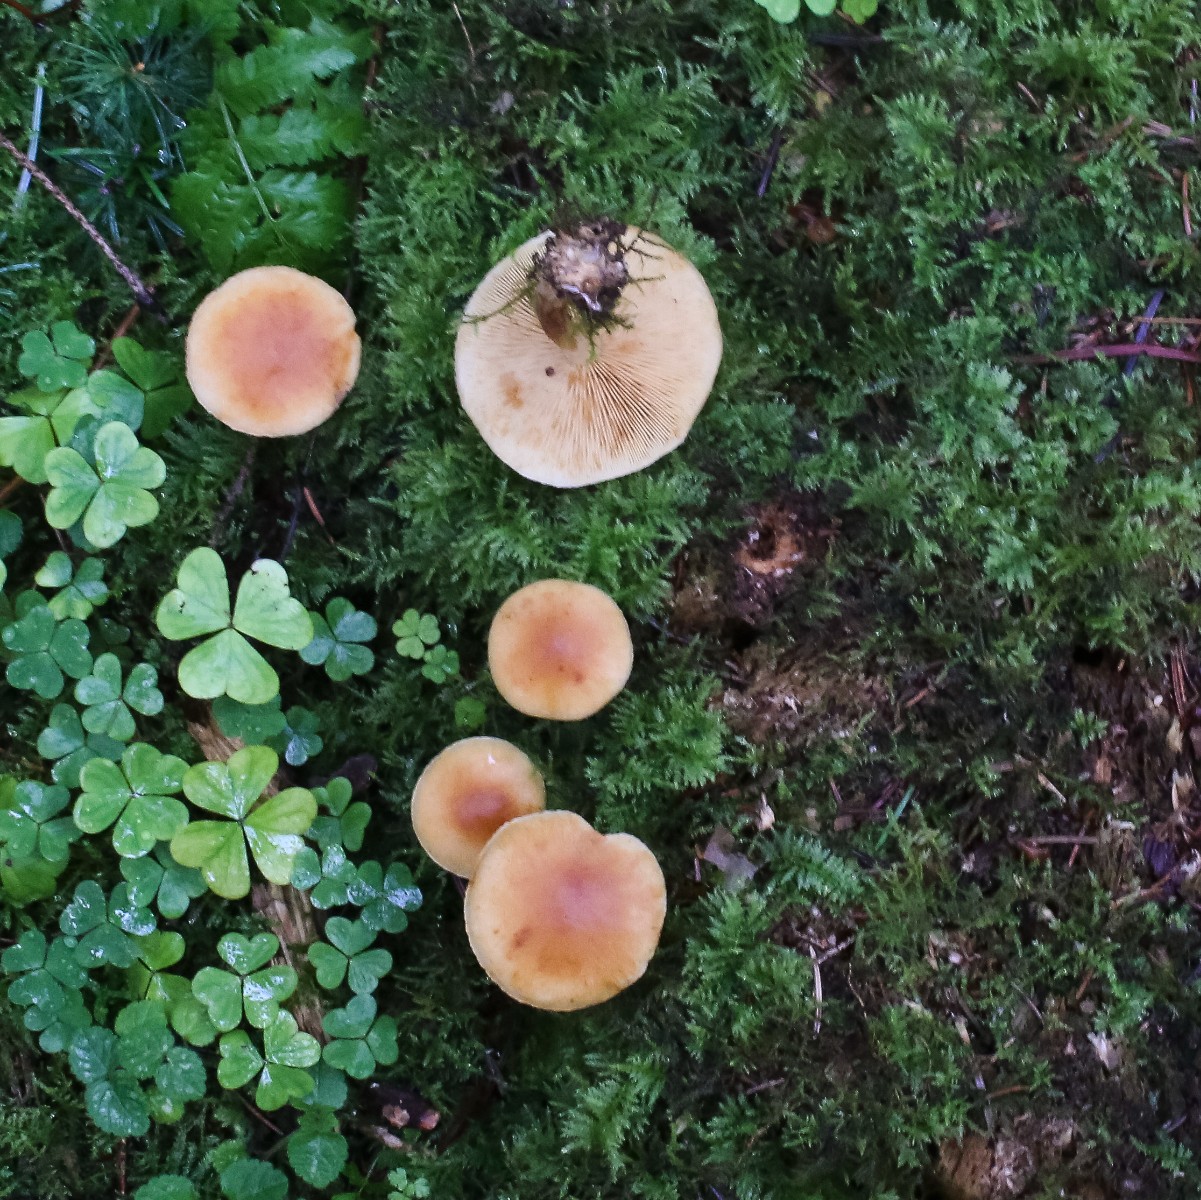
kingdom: Fungi
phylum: Basidiomycota
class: Agaricomycetes
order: Agaricales
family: Hymenogastraceae
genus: Gymnopilus
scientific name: Gymnopilus penetrans
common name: plettet flammehat
